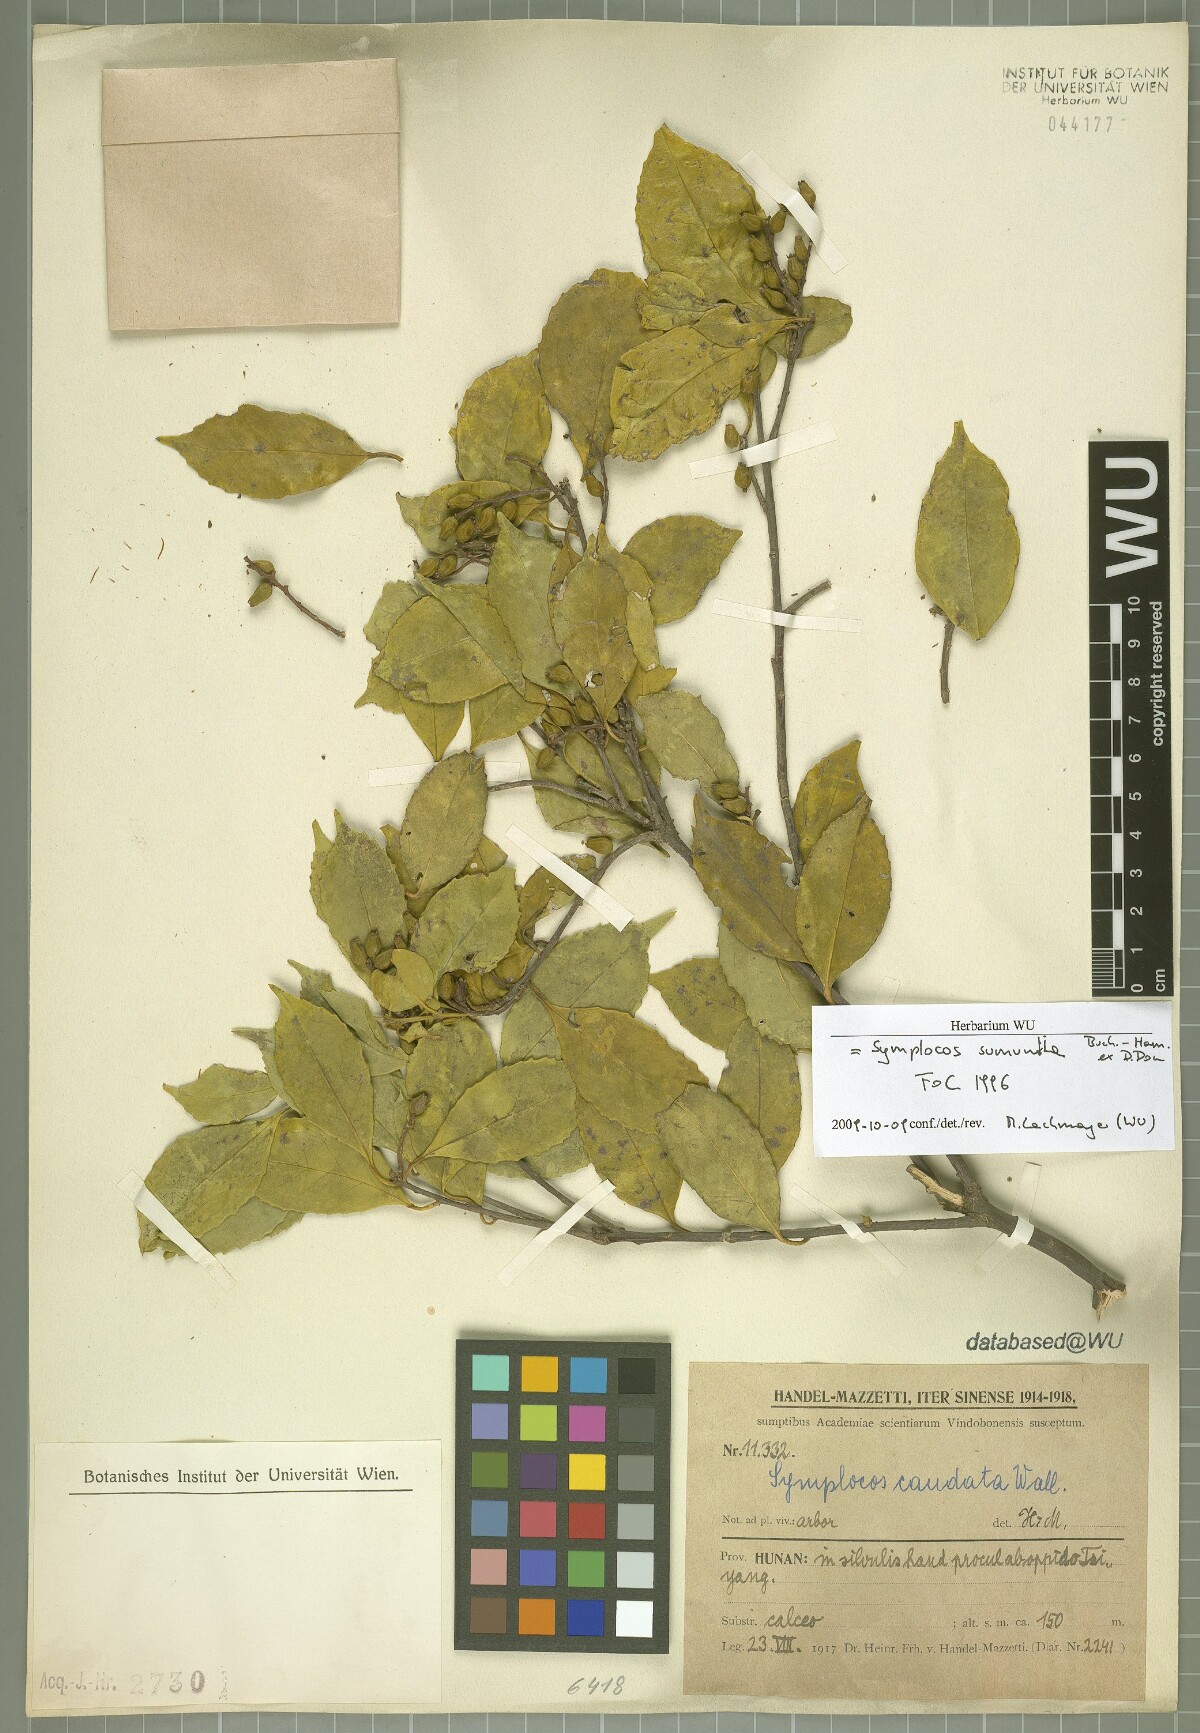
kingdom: Plantae
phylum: Tracheophyta
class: Magnoliopsida
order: Ericales
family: Symplocaceae
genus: Symplocos
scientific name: Symplocos sumuntia
